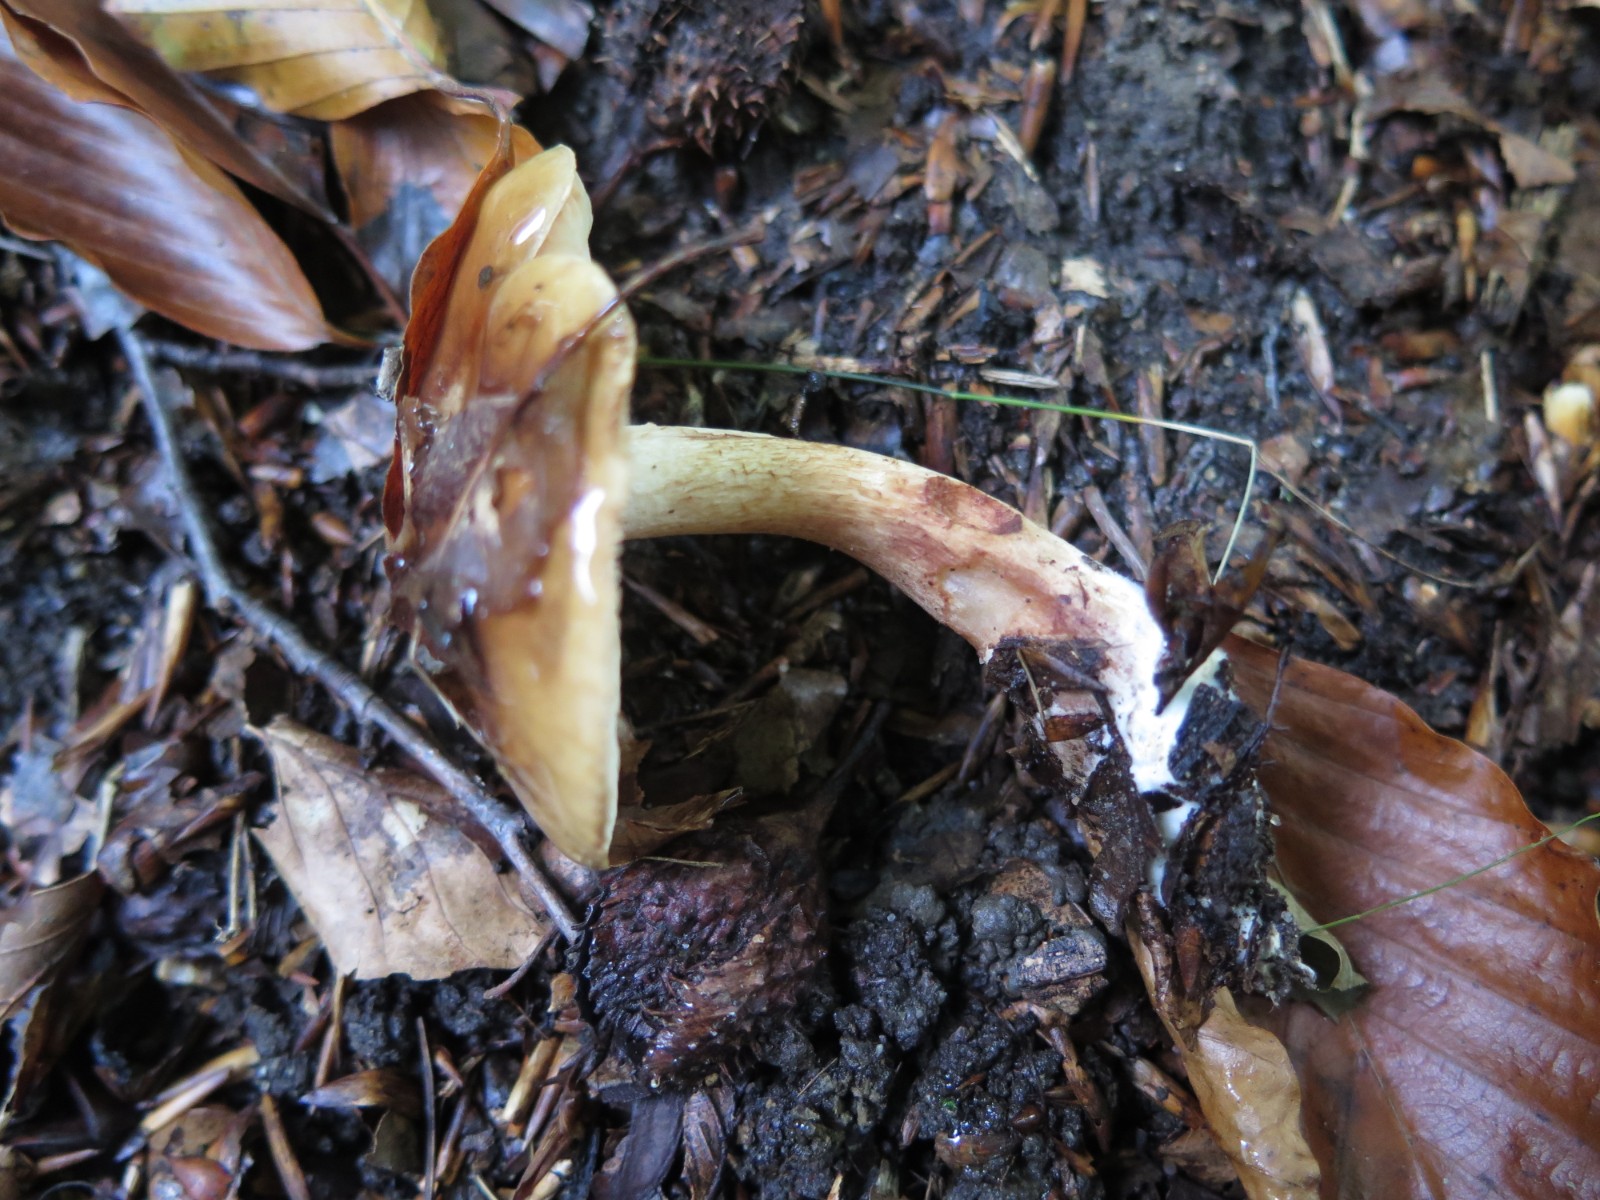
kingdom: Fungi
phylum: Basidiomycota
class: Agaricomycetes
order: Agaricales
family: Tricholomataceae
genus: Tricholoma
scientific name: Tricholoma ustale
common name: sveden ridderhat
